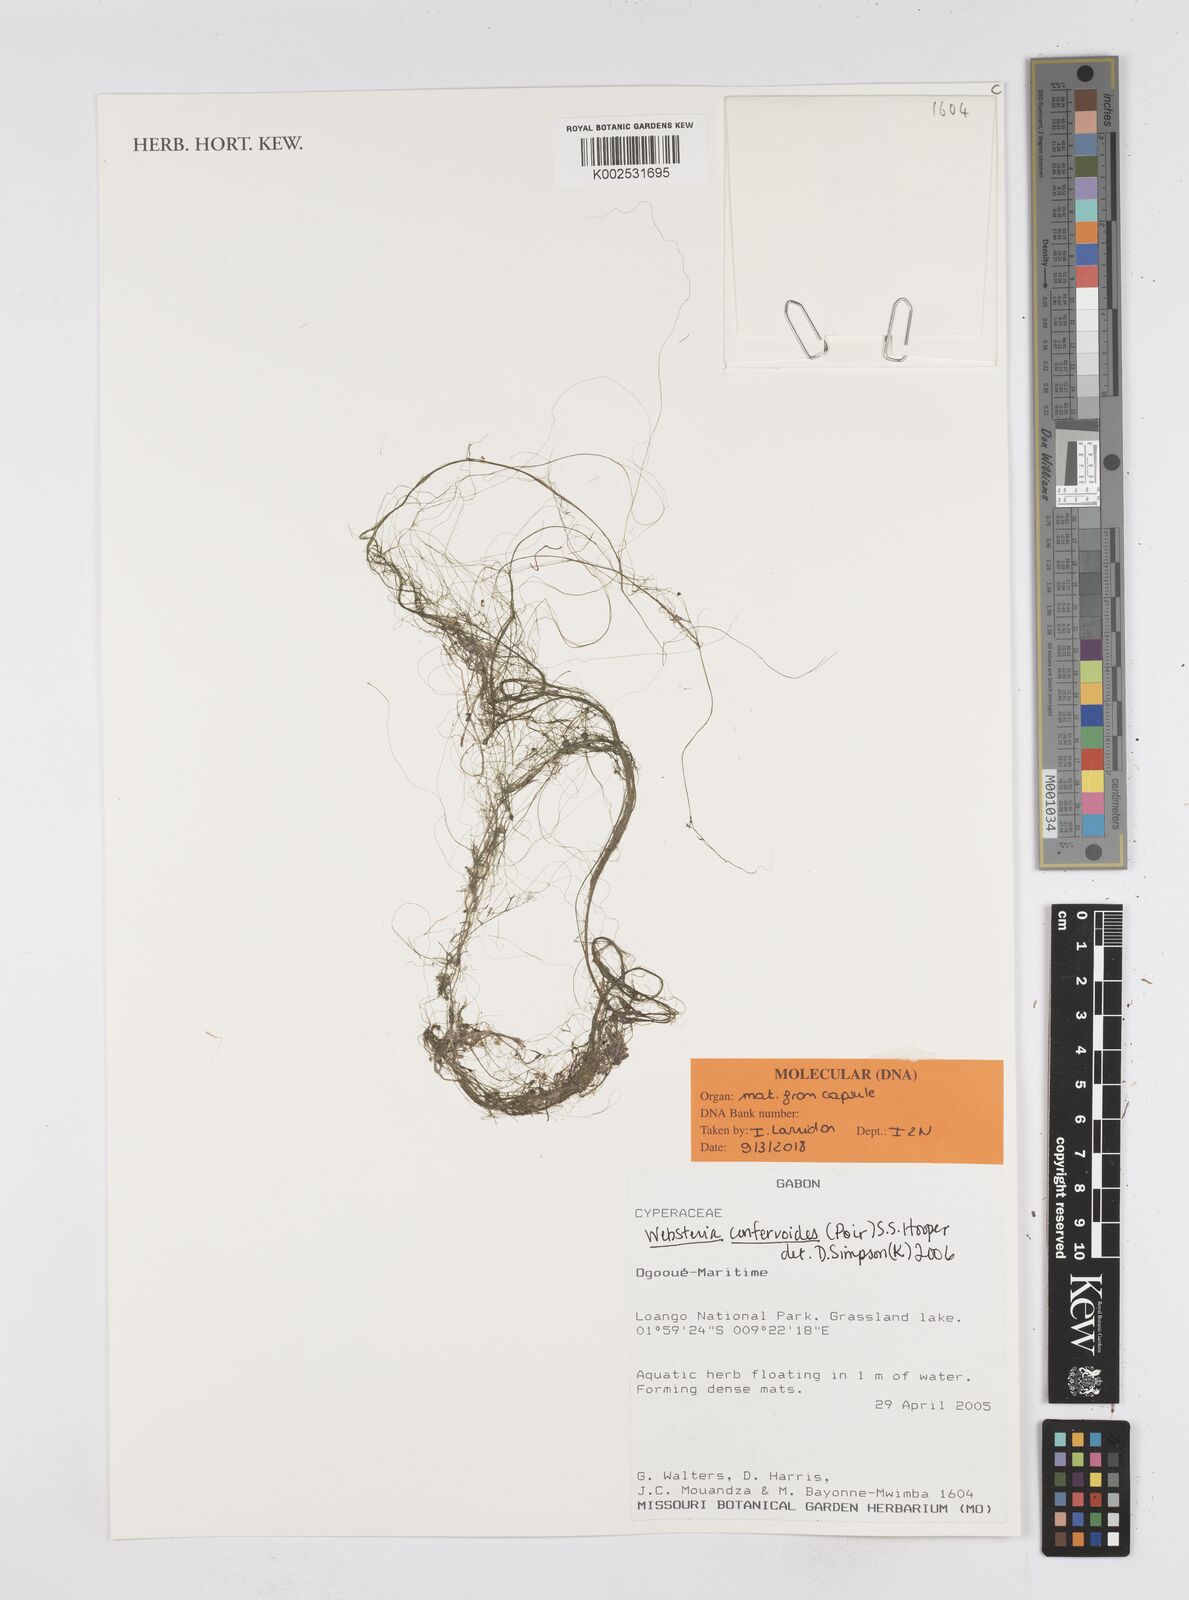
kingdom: Plantae
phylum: Tracheophyta
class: Liliopsida
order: Poales
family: Cyperaceae
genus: Eleocharis
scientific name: Eleocharis confervoides
